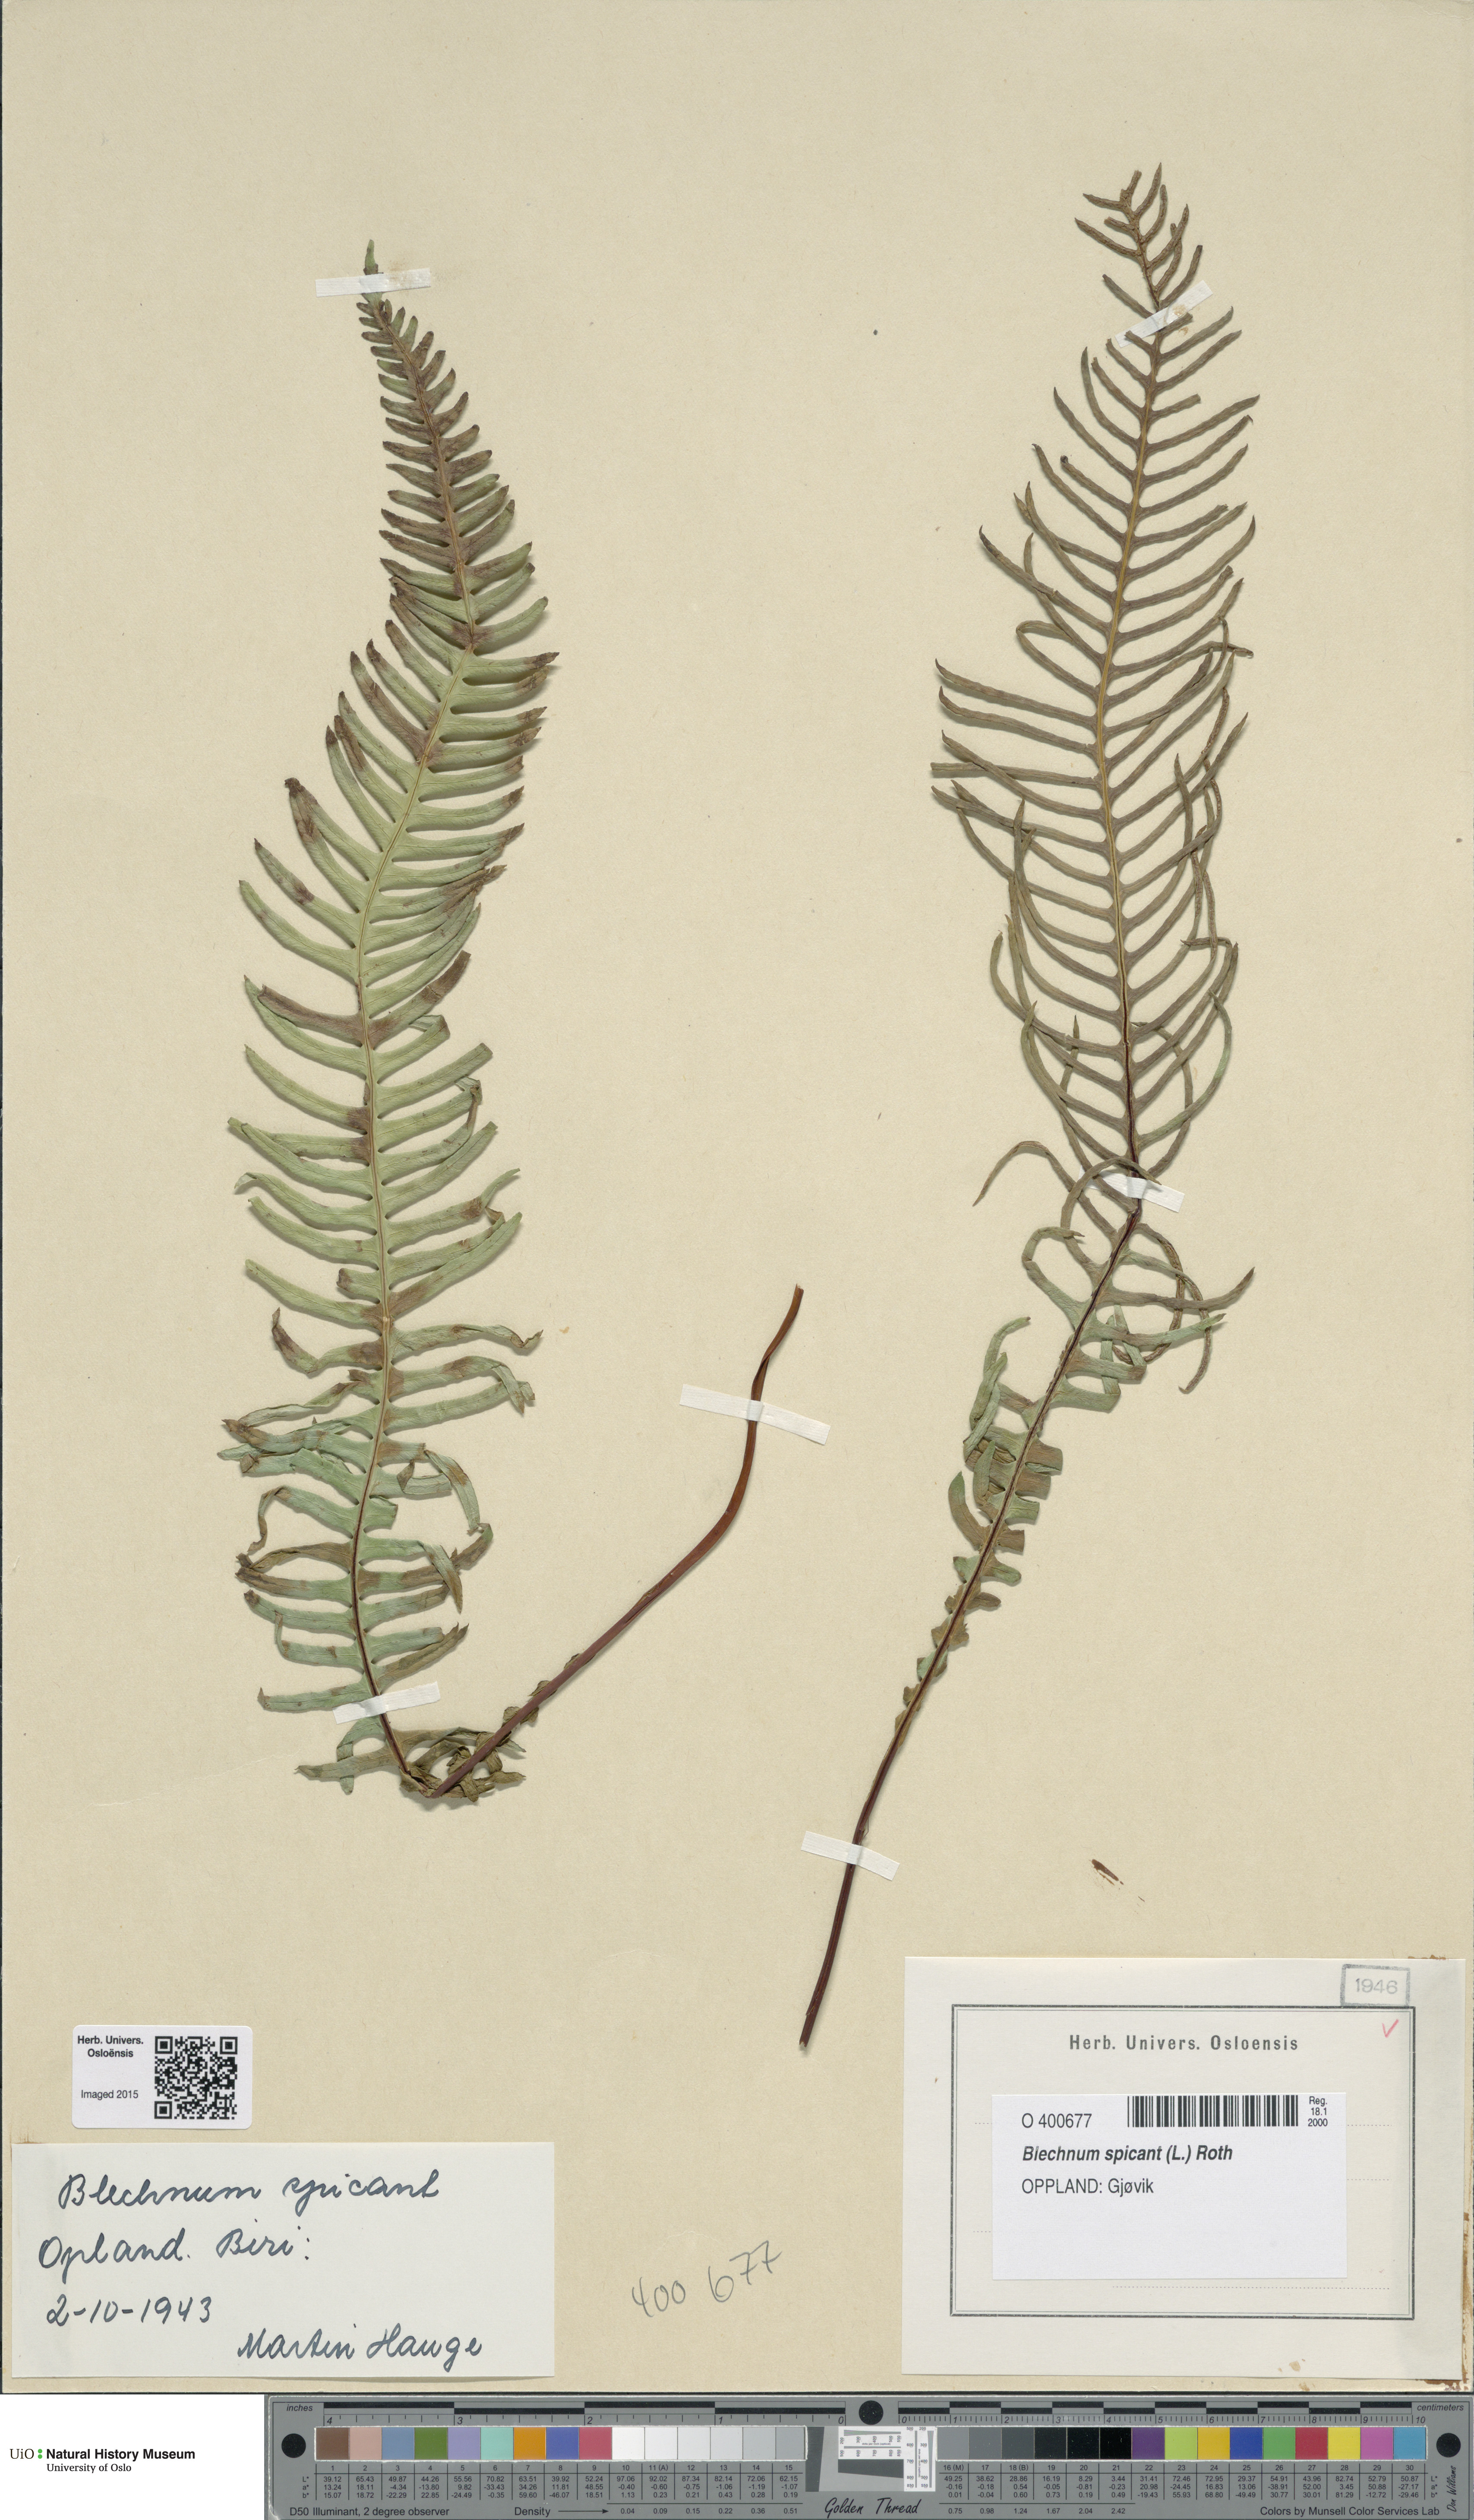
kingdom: Plantae
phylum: Tracheophyta
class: Polypodiopsida
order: Polypodiales
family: Blechnaceae
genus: Struthiopteris
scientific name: Struthiopteris spicant
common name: Deer fern
